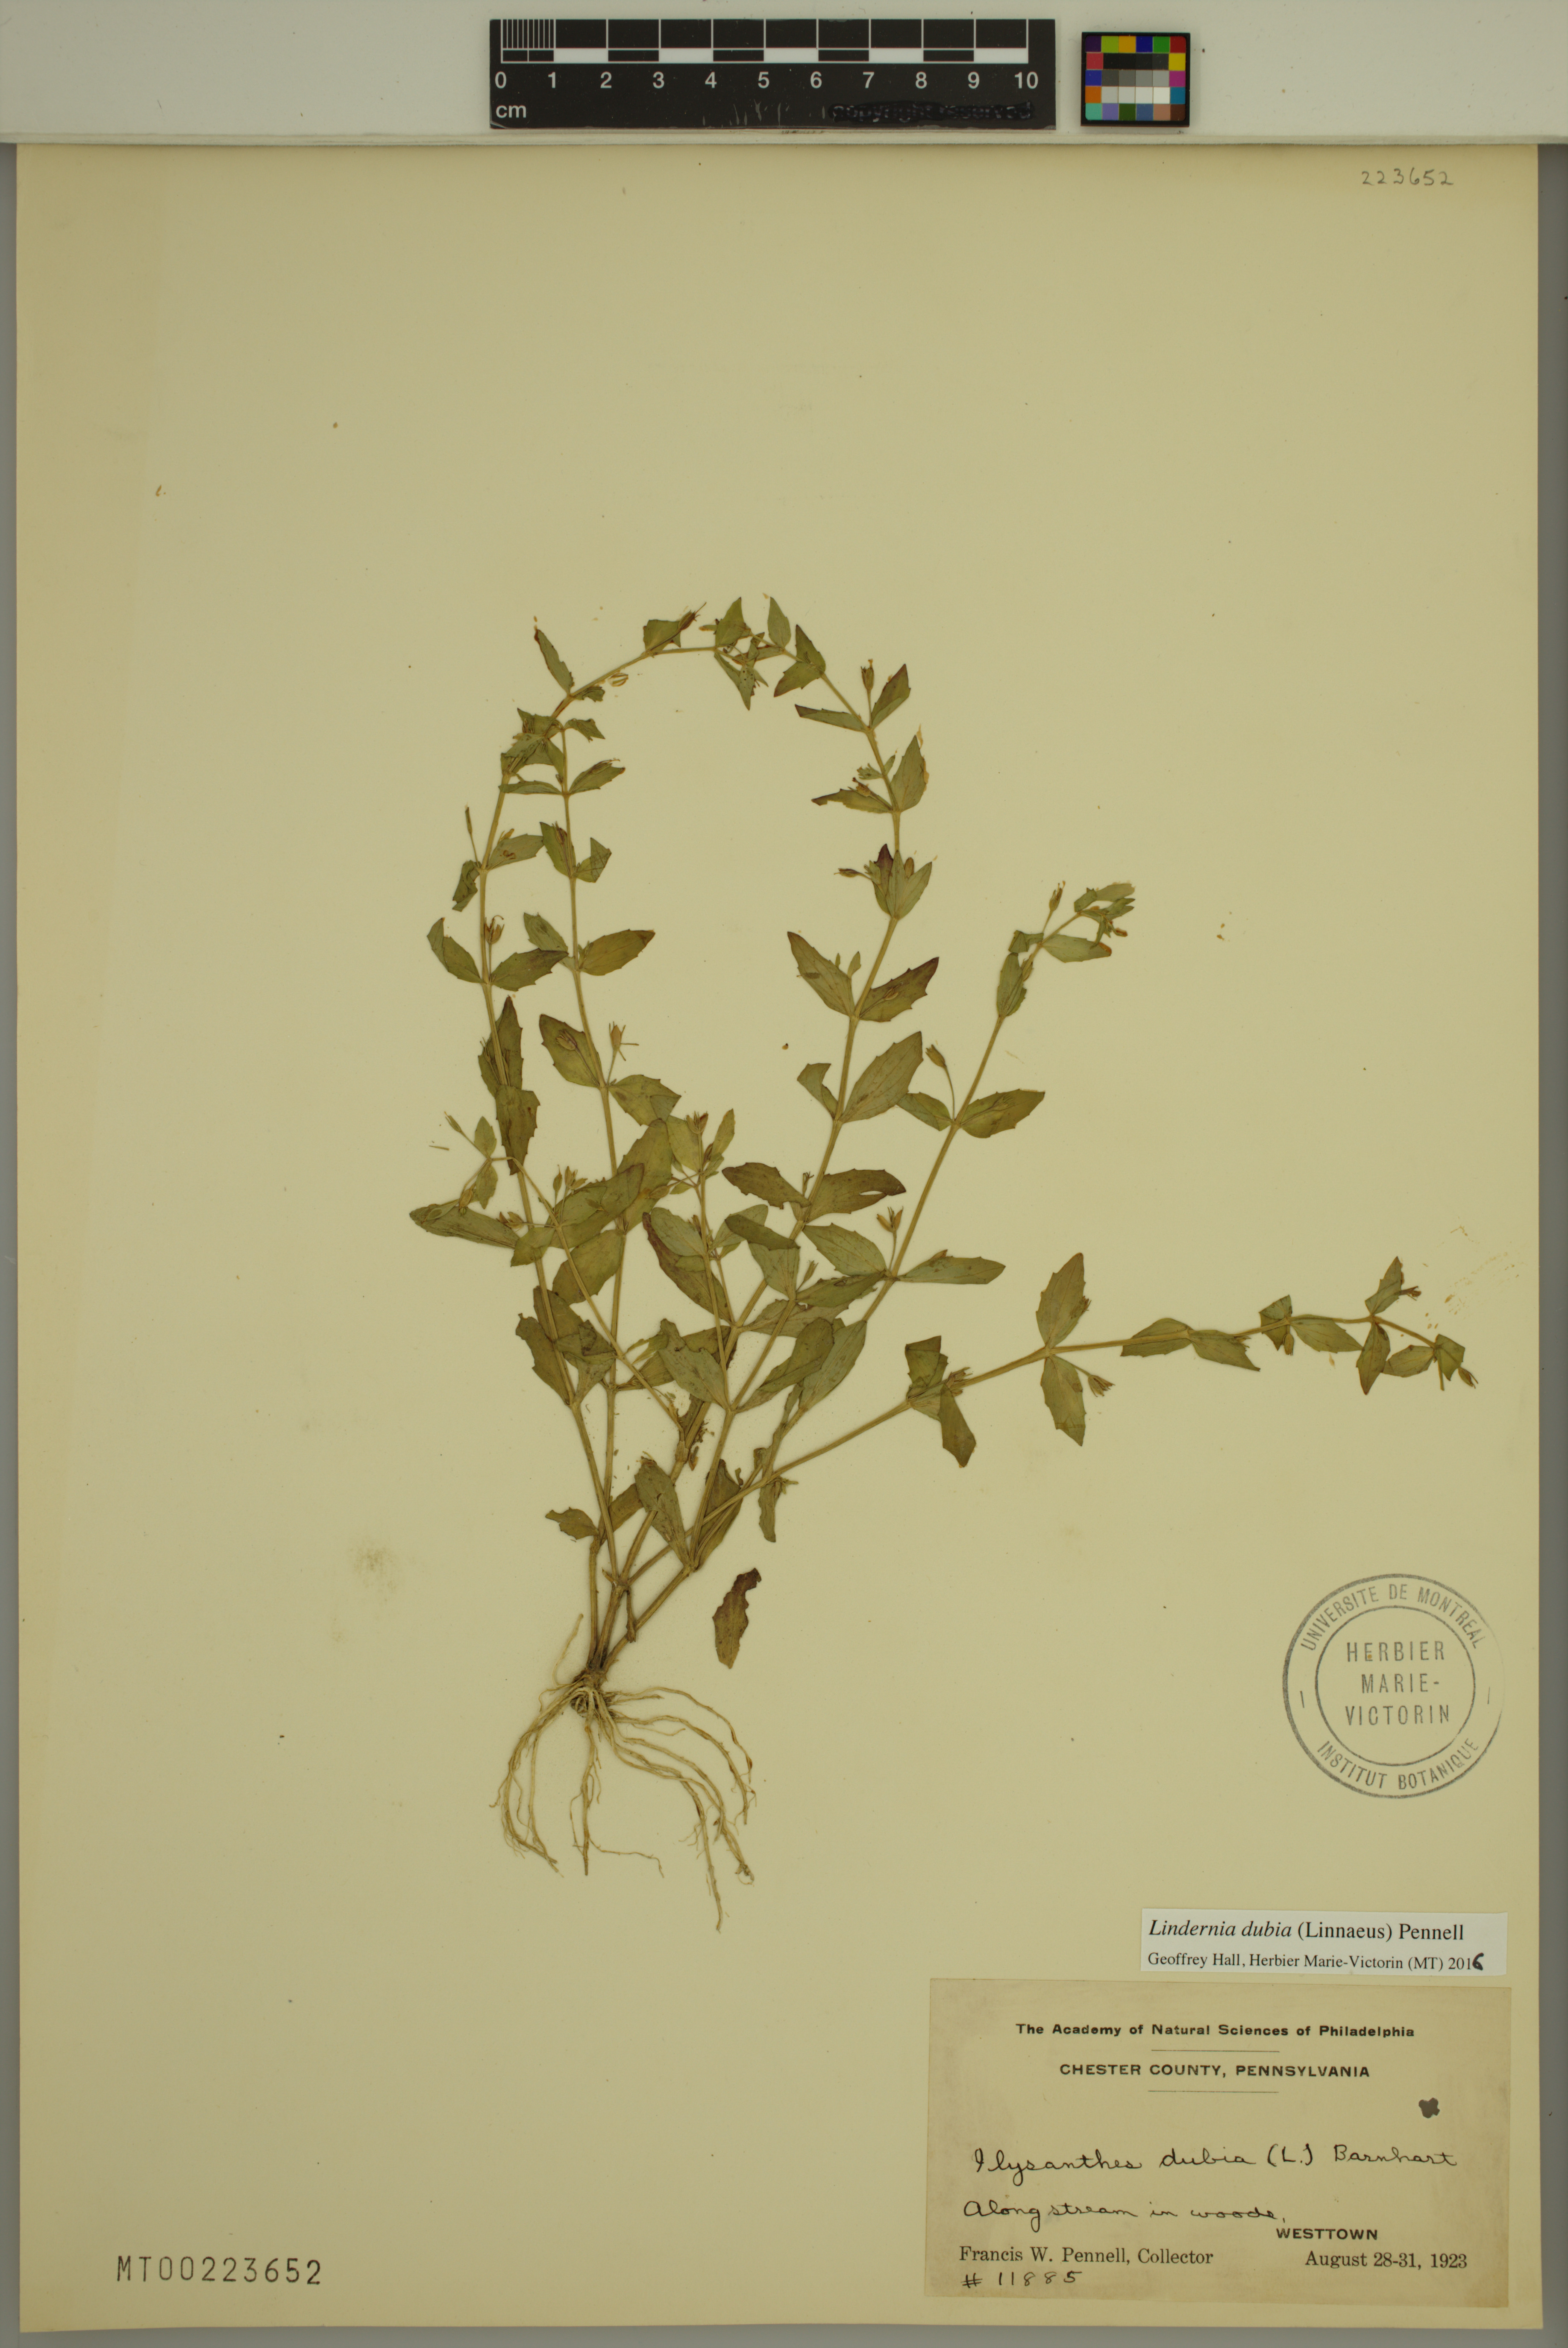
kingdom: Plantae
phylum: Tracheophyta
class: Magnoliopsida
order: Lamiales
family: Linderniaceae
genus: Lindernia
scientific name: Lindernia dubia
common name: Annual false pimpernel
